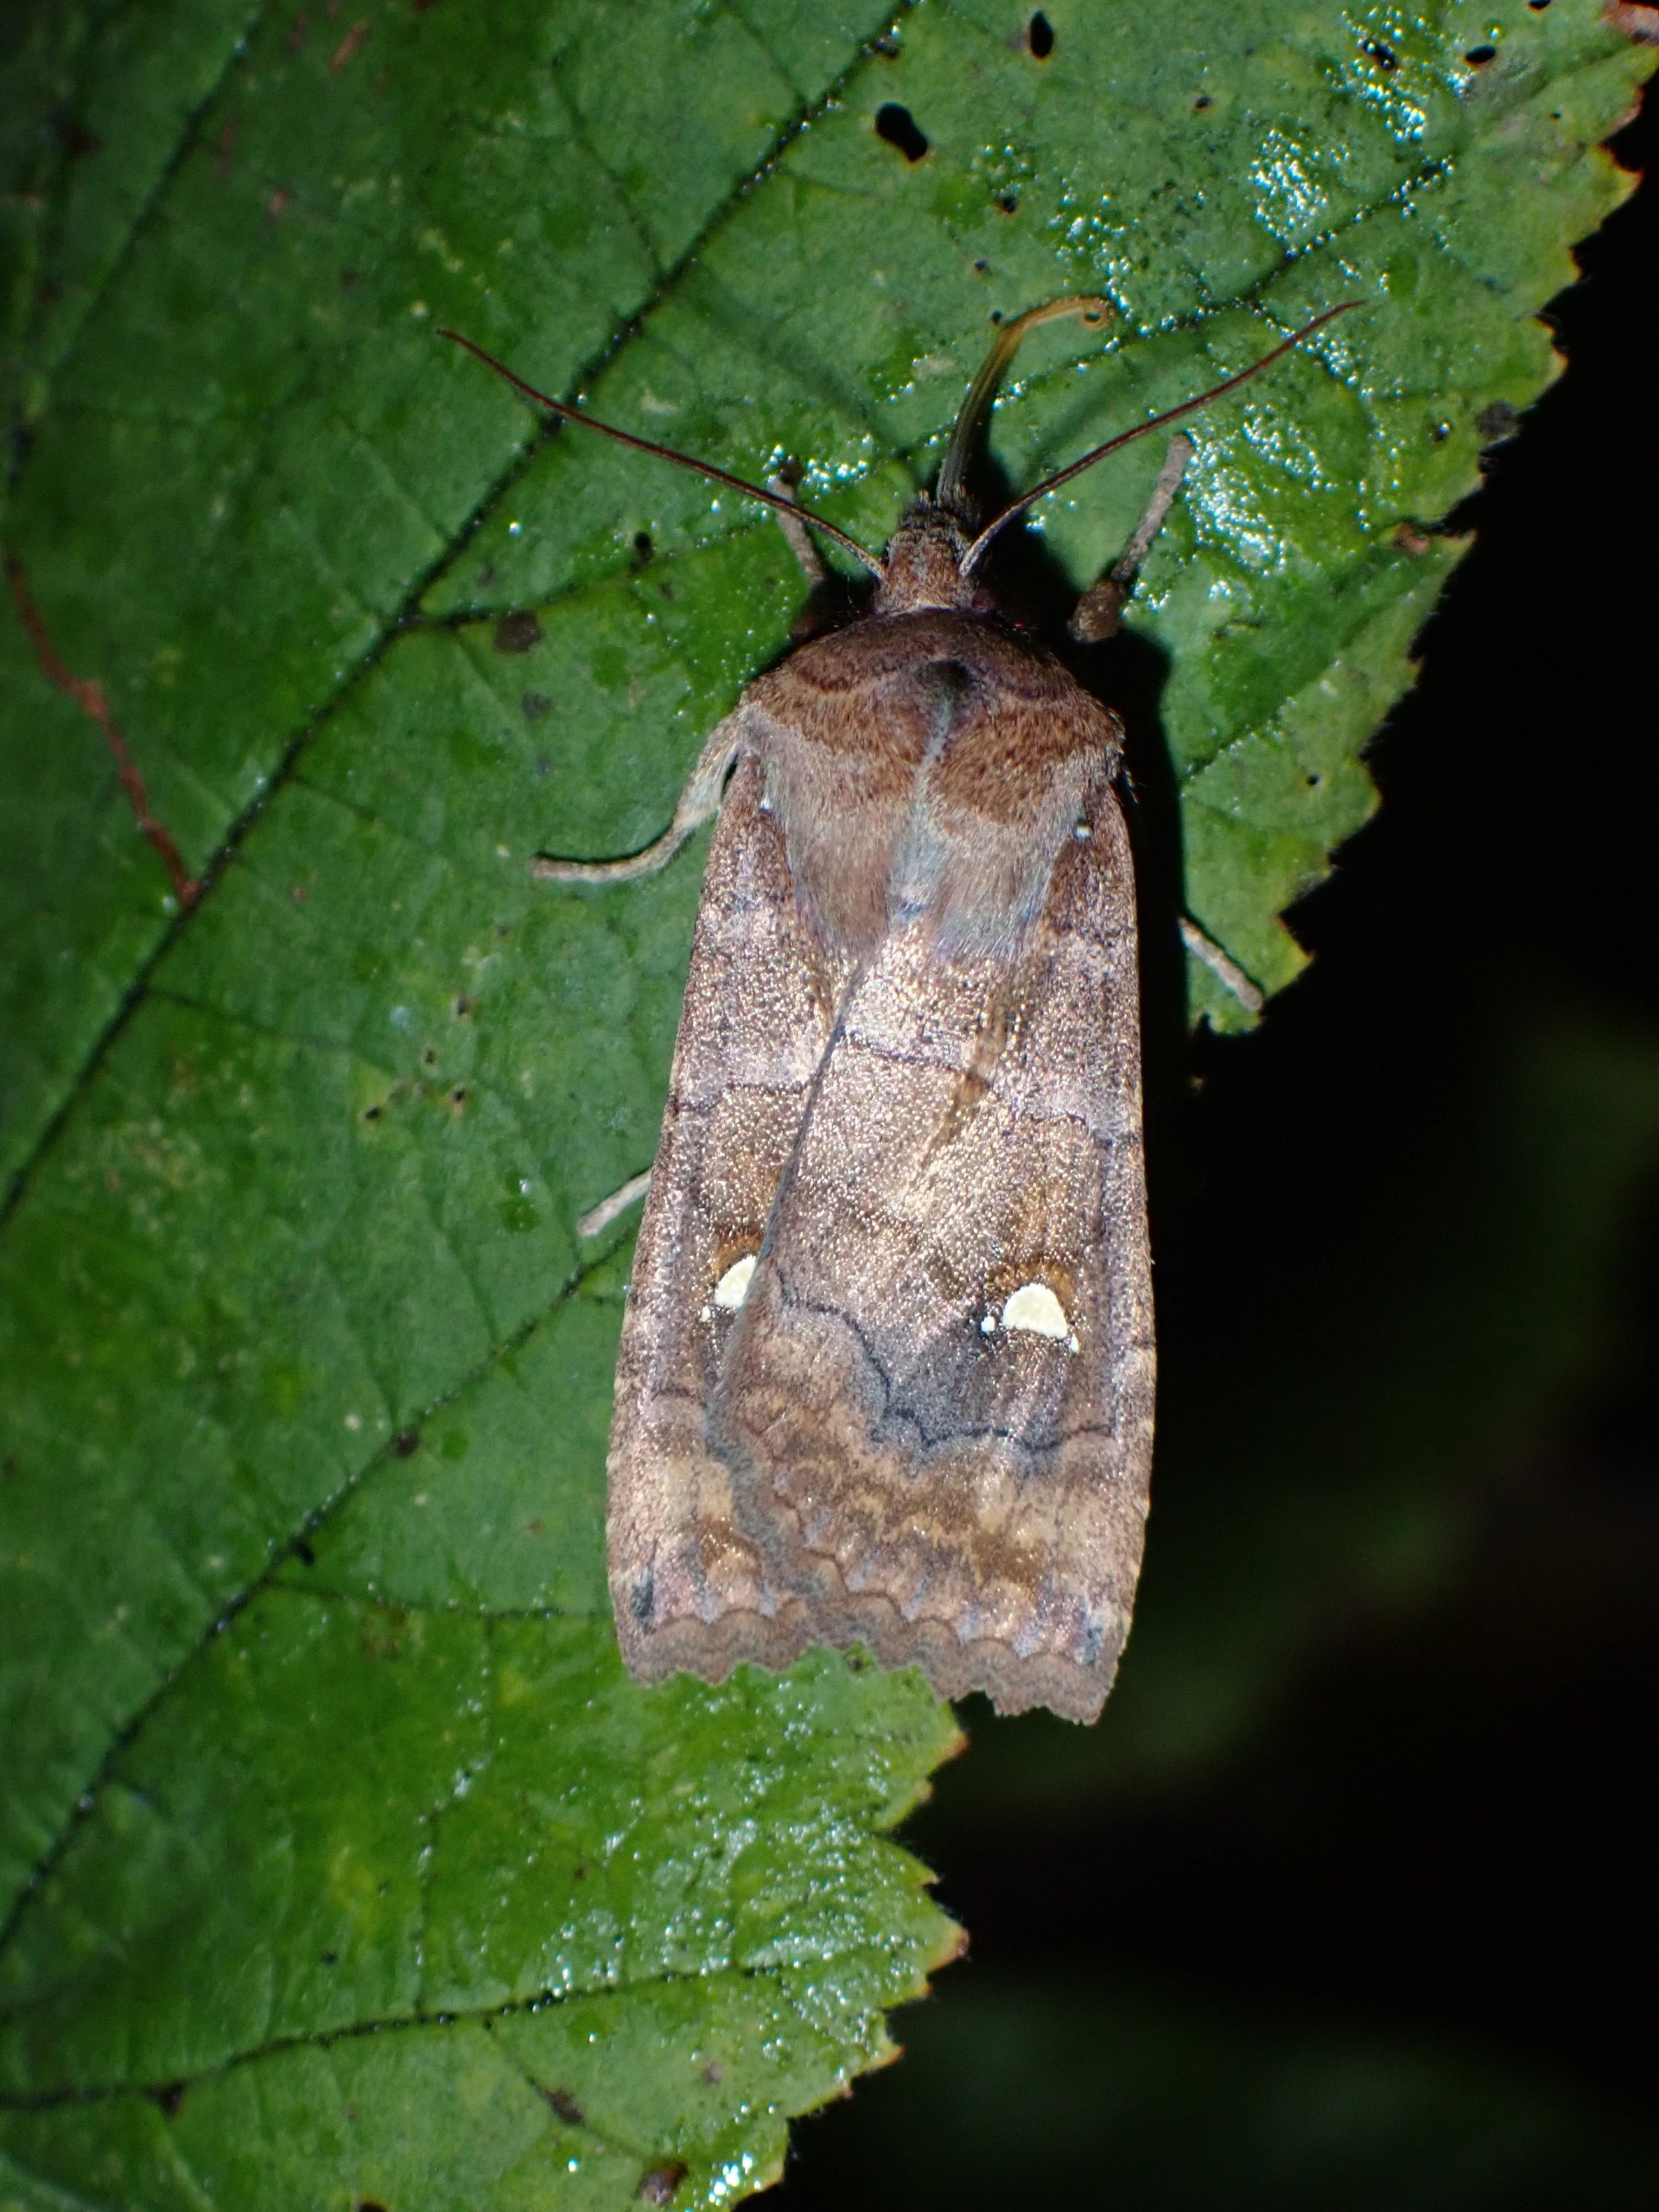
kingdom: Animalia
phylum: Arthropoda
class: Insecta
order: Lepidoptera
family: Noctuidae
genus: Eupsilia
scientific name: Eupsilia transversa
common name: Satellitugle
